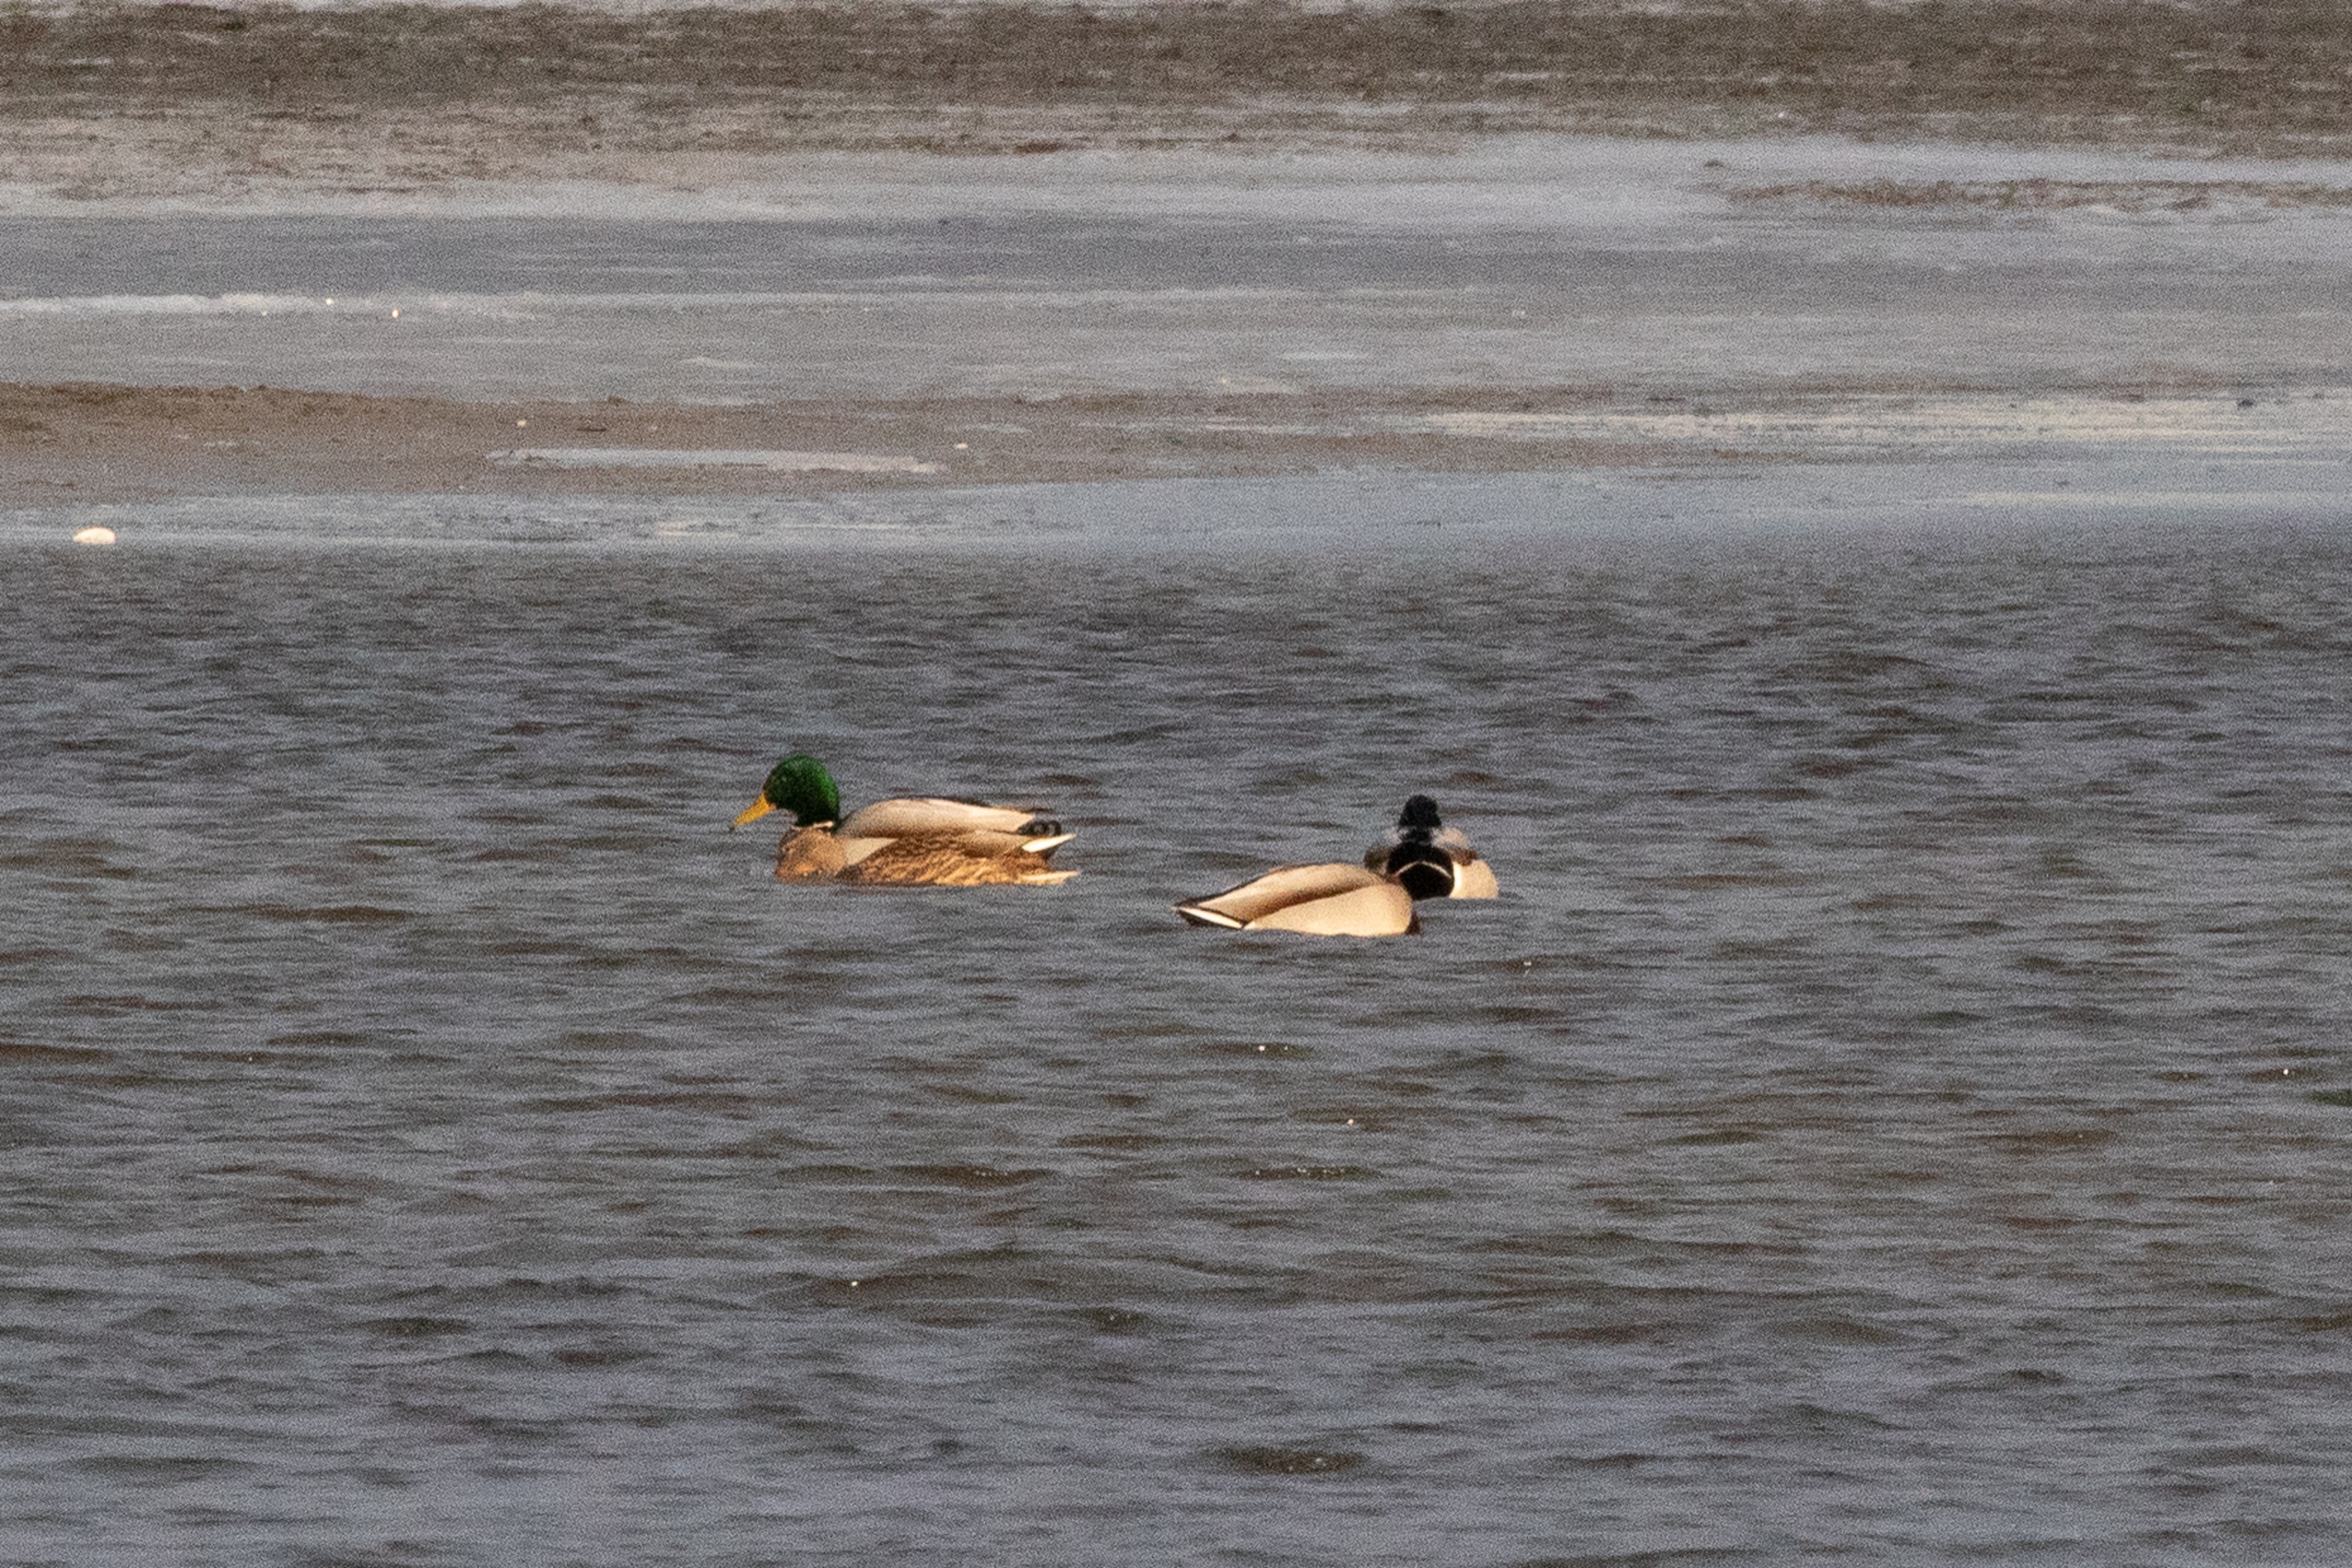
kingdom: Animalia
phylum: Chordata
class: Aves
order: Anseriformes
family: Anatidae
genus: Anas
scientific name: Anas platyrhynchos
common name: Gråand
